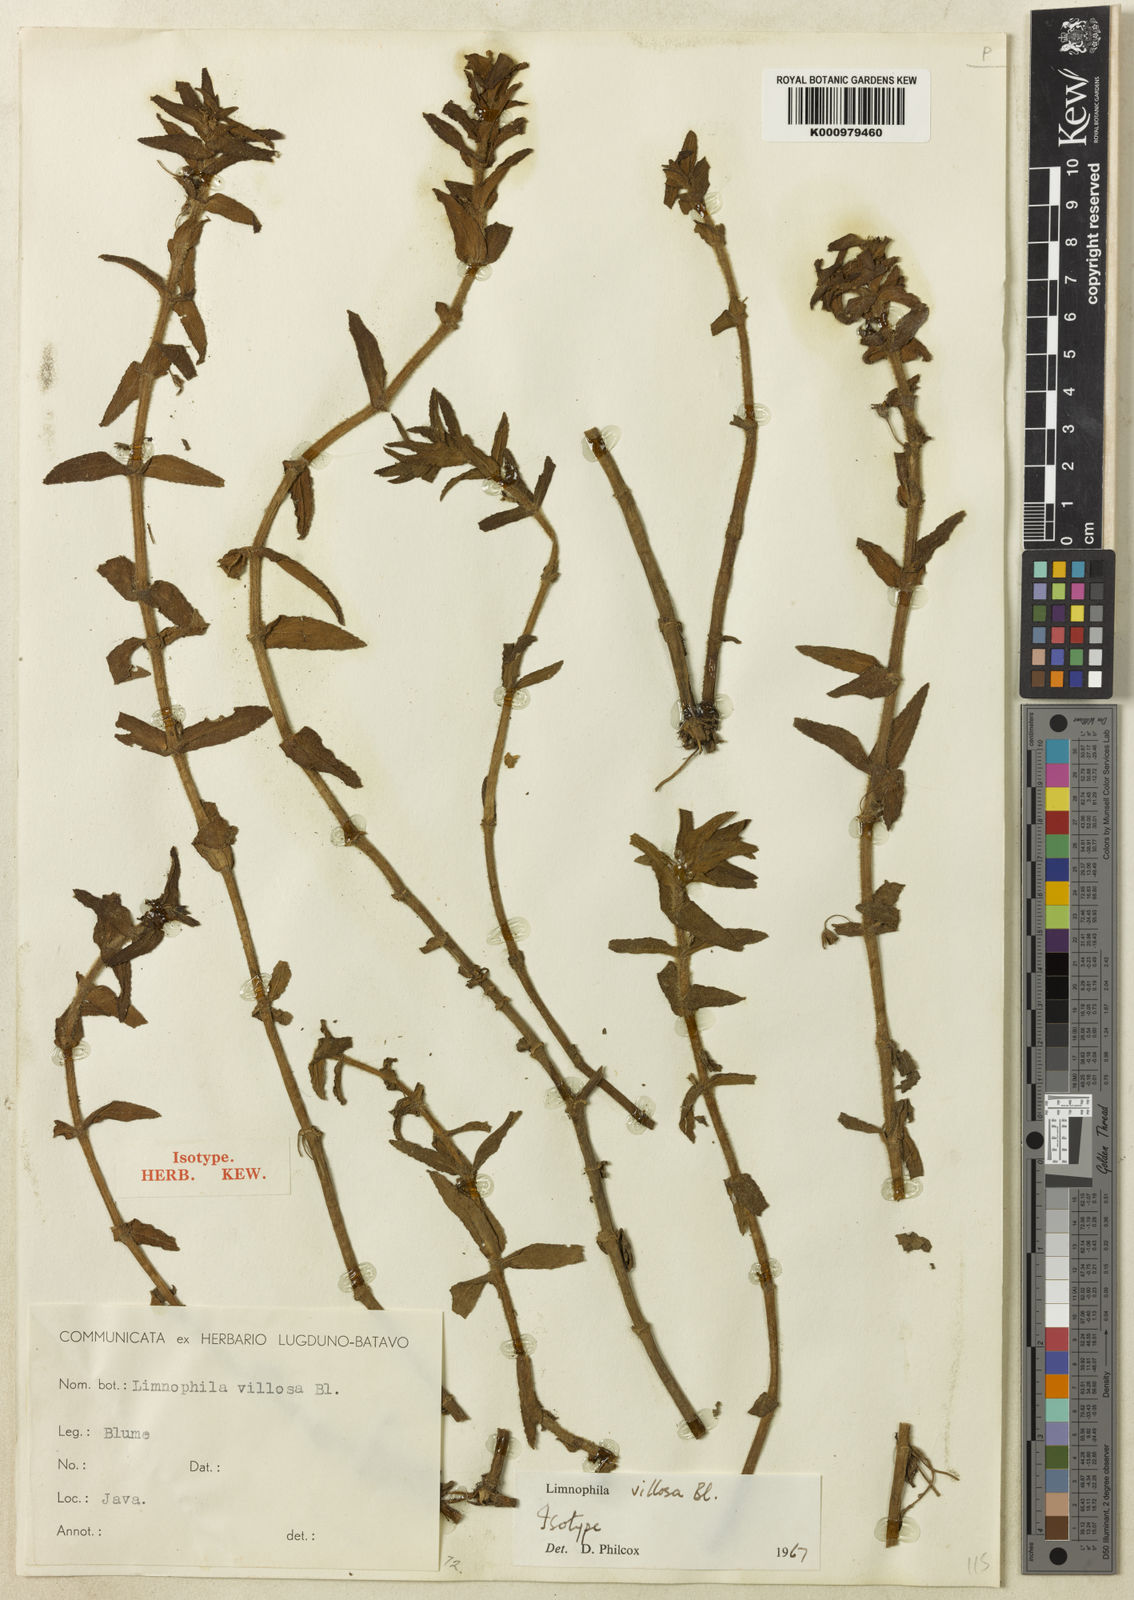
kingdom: Plantae
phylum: Tracheophyta
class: Magnoliopsida
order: Lamiales
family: Plantaginaceae
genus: Limnophila
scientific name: Limnophila villosa
